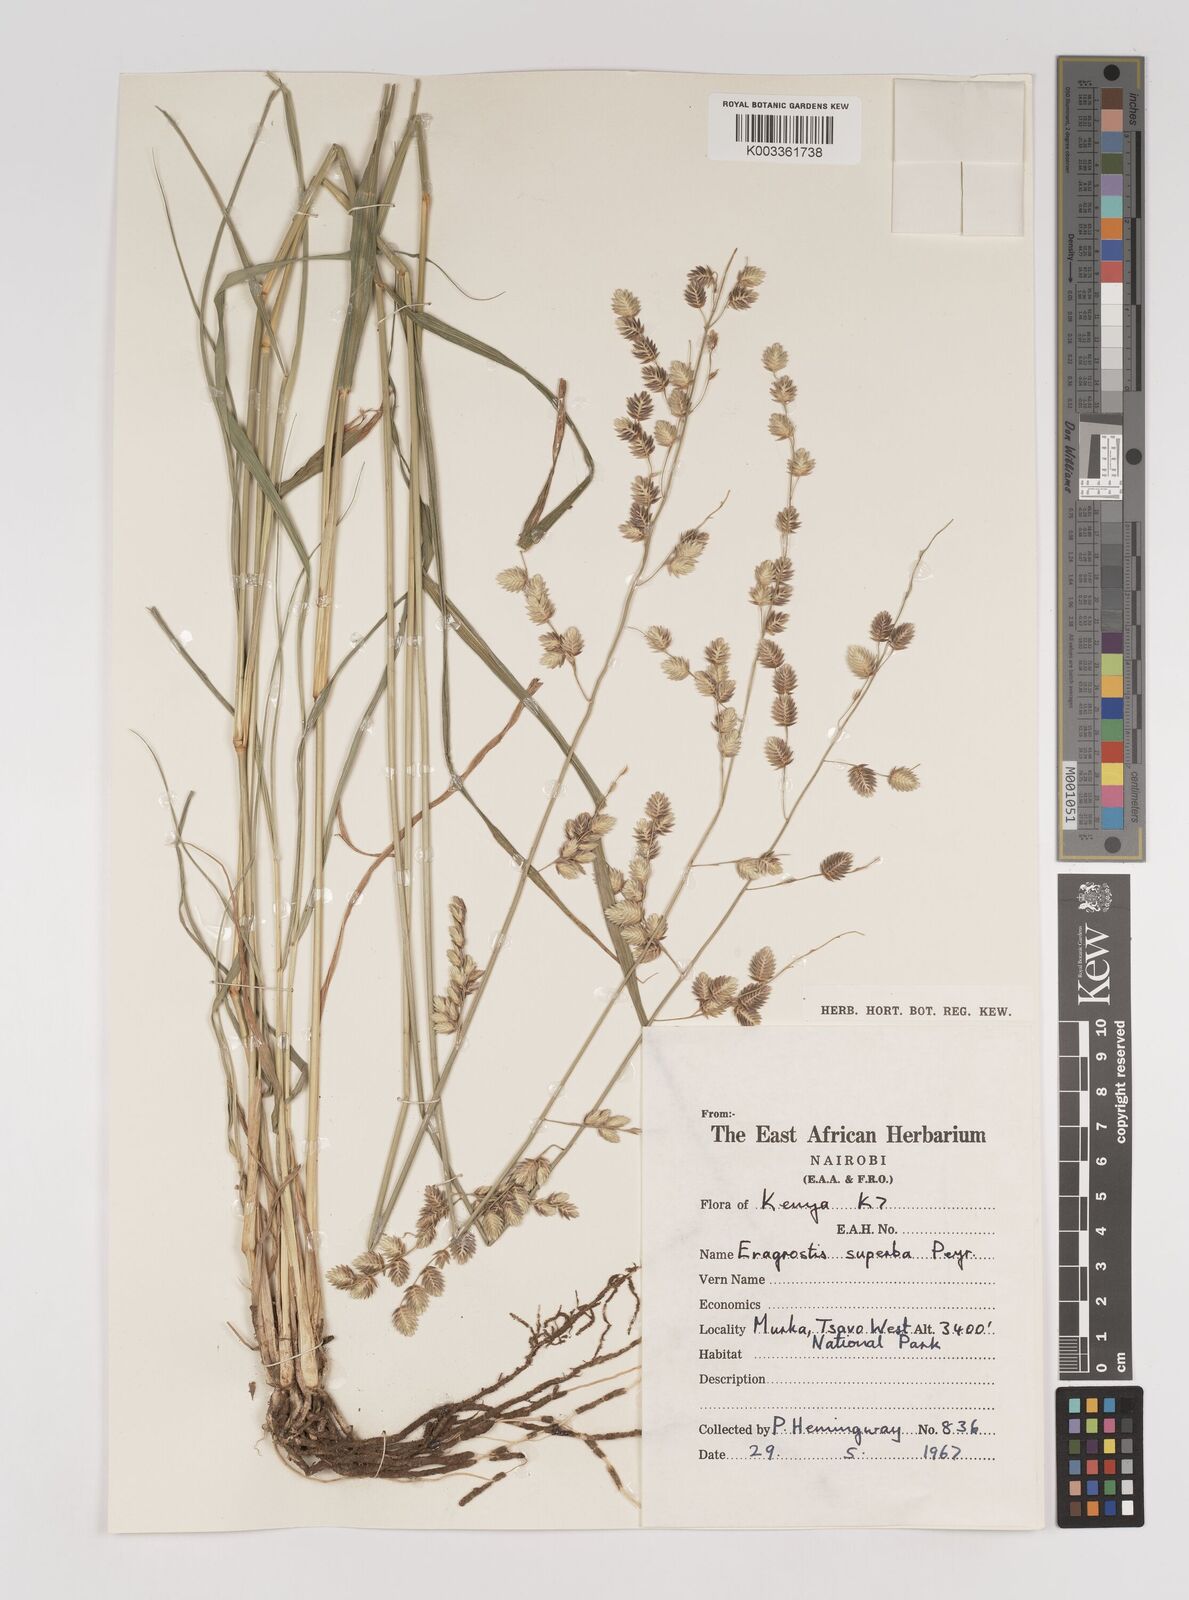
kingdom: Plantae
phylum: Tracheophyta
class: Liliopsida
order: Poales
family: Poaceae
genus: Eragrostis
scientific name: Eragrostis superba
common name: Wilman lovegrass
